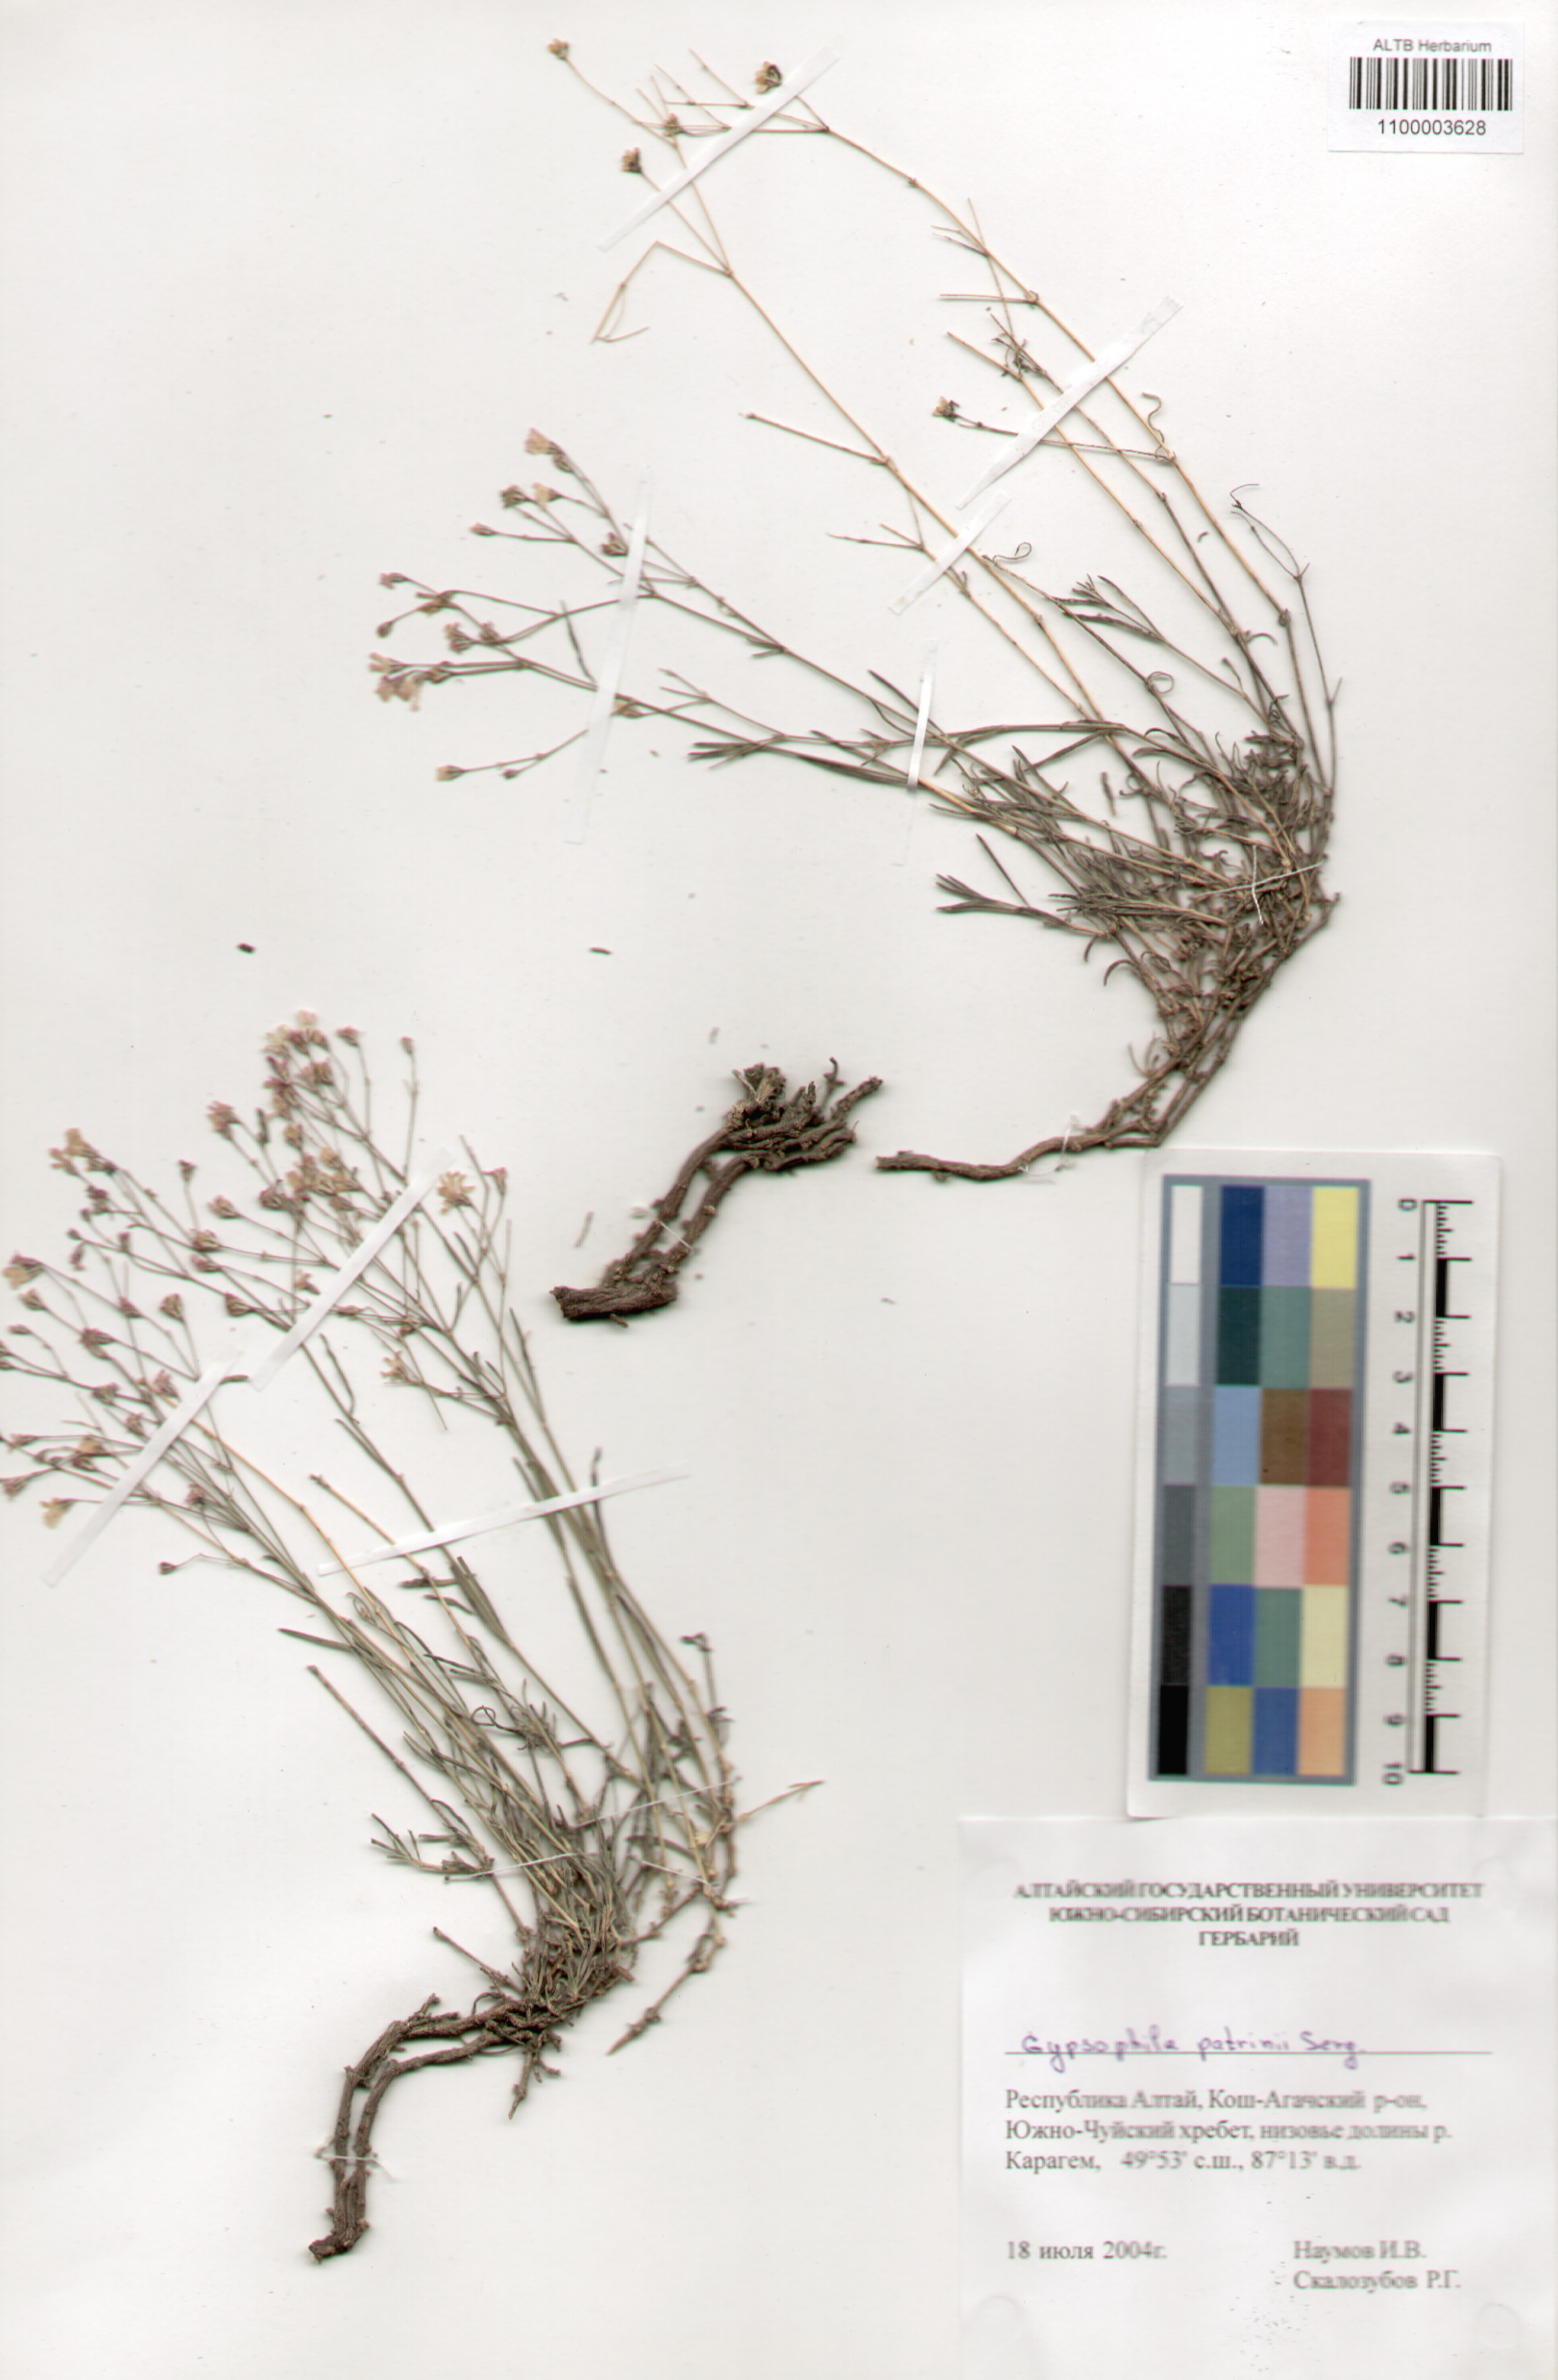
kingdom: Plantae
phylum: Tracheophyta
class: Magnoliopsida
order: Caryophyllales
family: Caryophyllaceae
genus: Gypsophila
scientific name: Gypsophila patrinii
